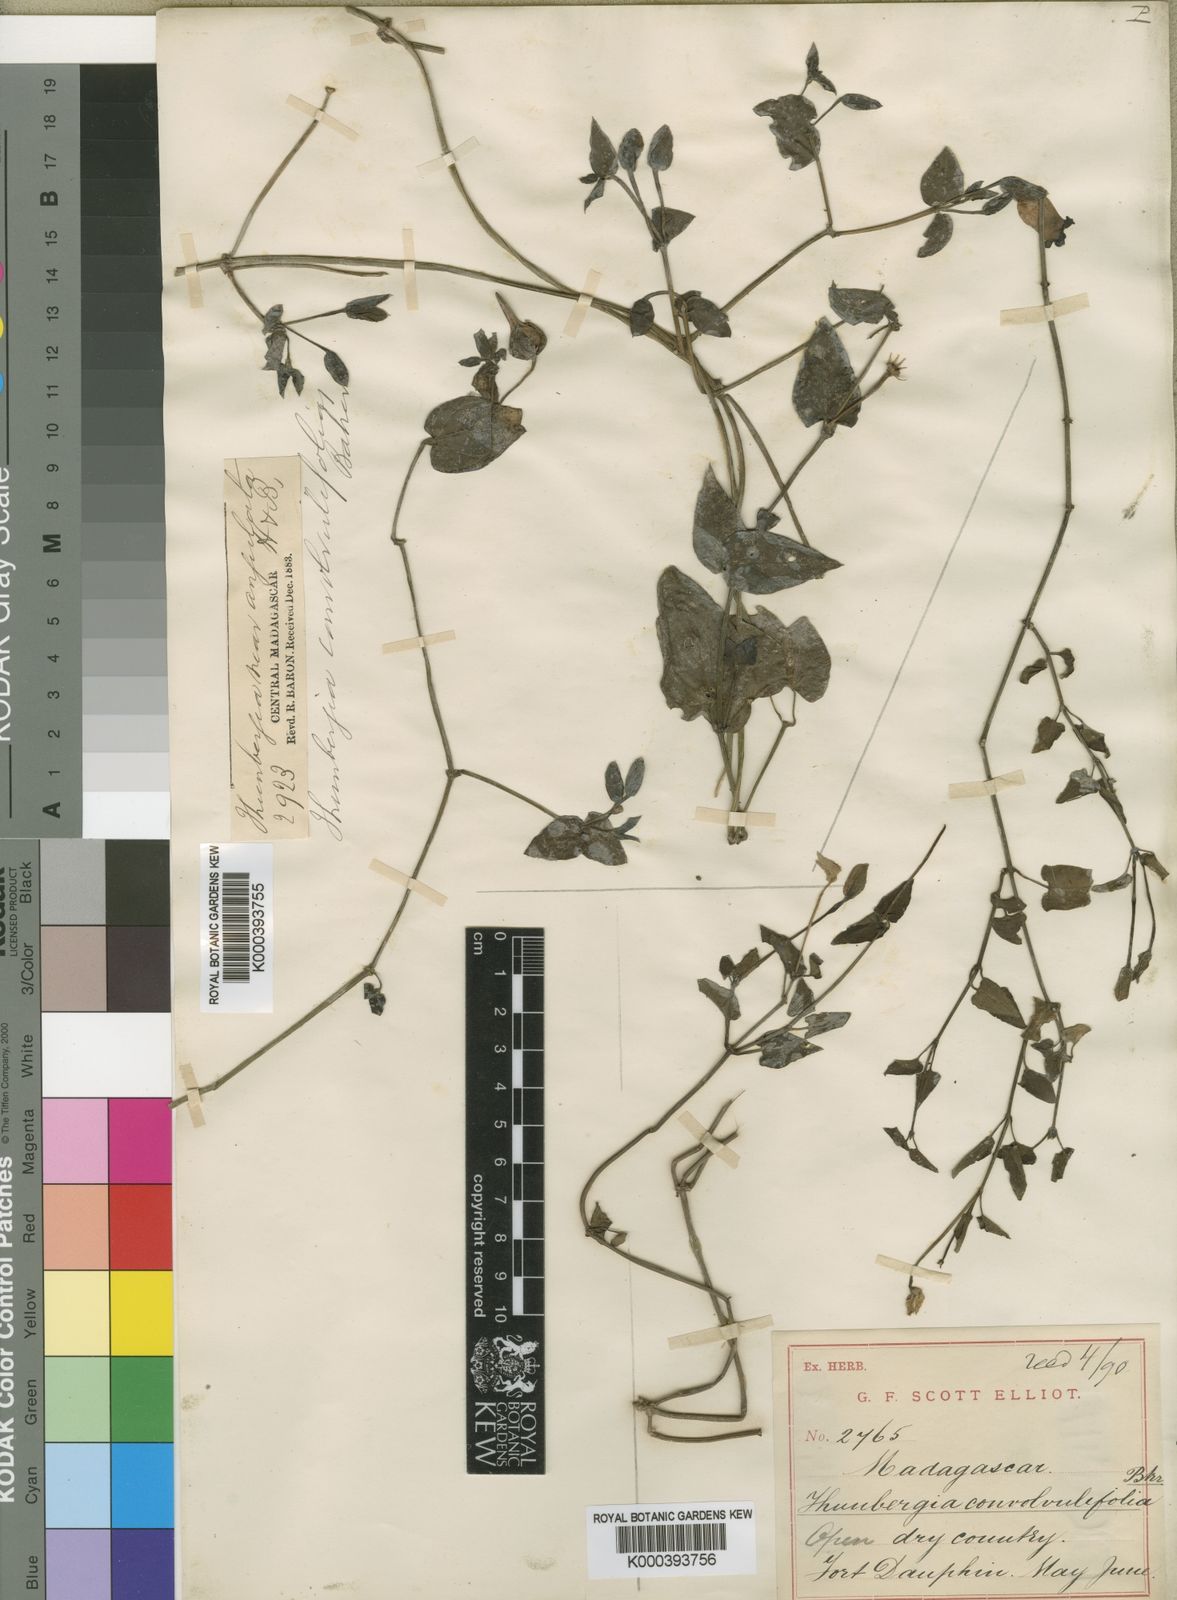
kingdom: Plantae
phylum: Tracheophyta
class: Magnoliopsida
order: Lamiales
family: Acanthaceae
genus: Thunbergia
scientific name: Thunbergia convolvulifolia
